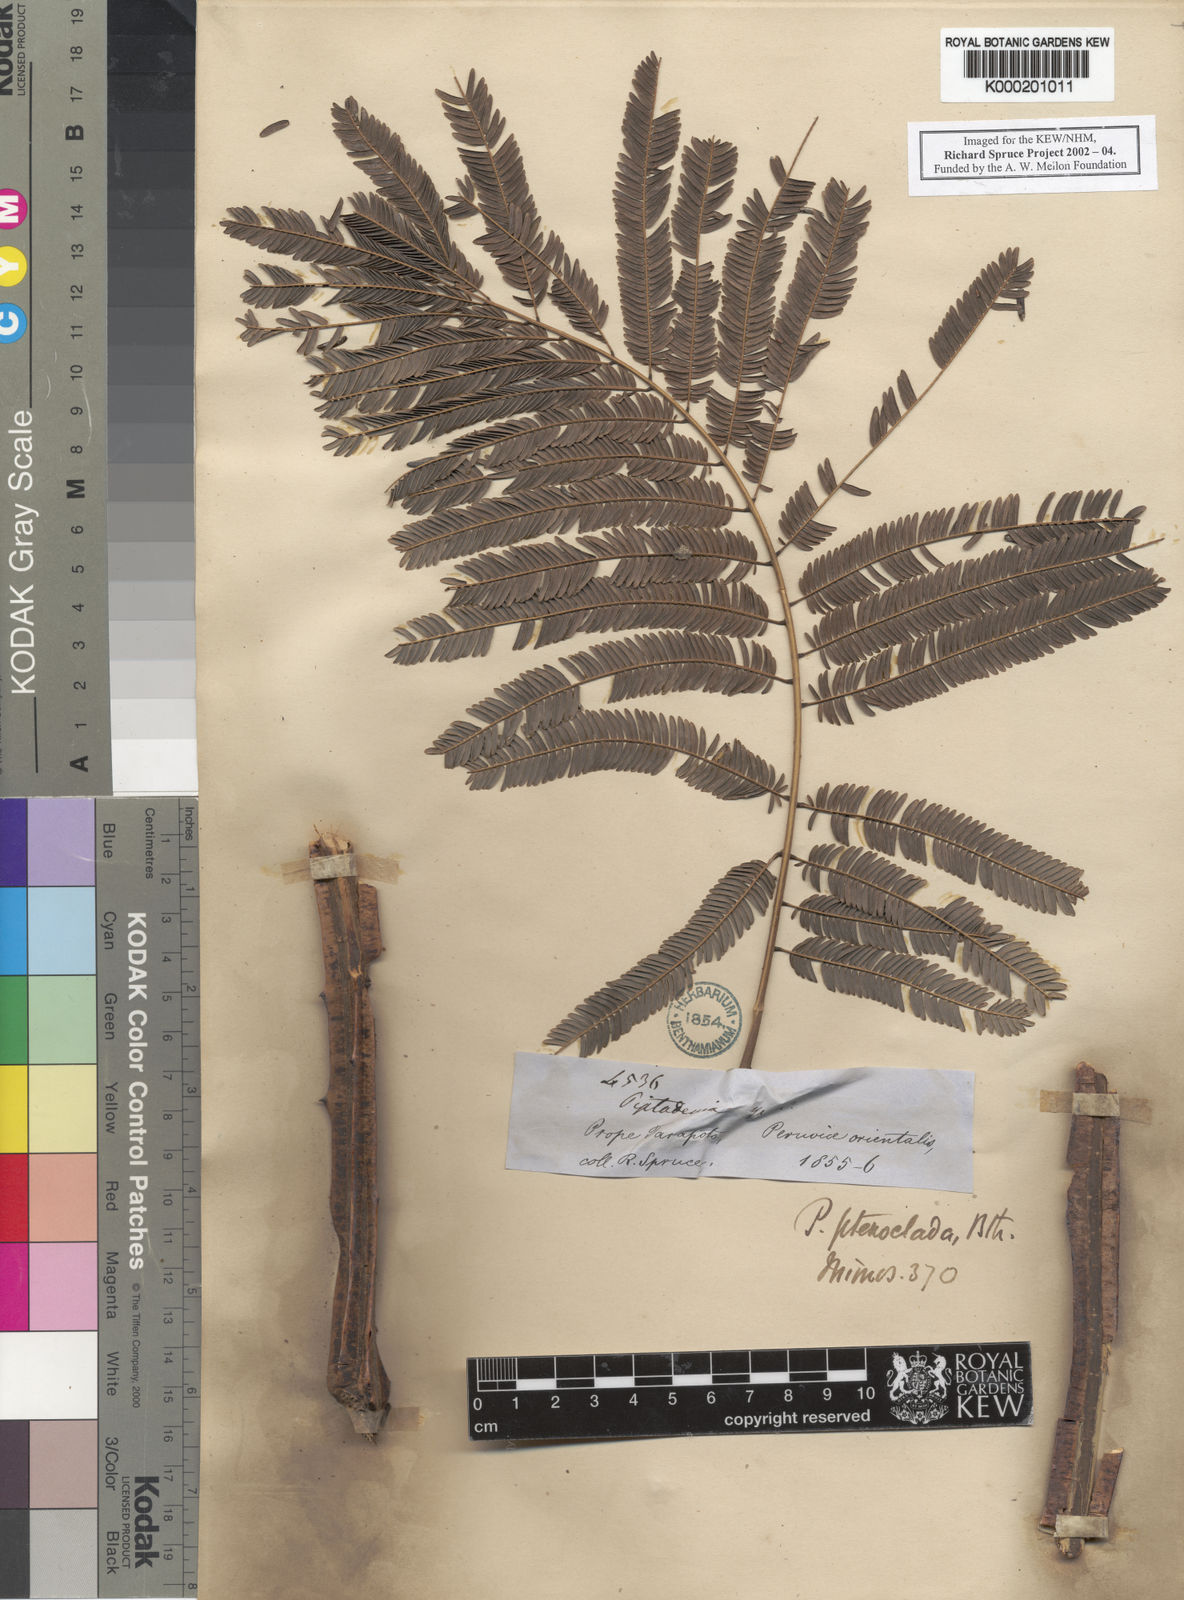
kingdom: Plantae
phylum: Tracheophyta
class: Magnoliopsida
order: Fabales
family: Fabaceae
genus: Piptadenia
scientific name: Piptadenia pteroclada
